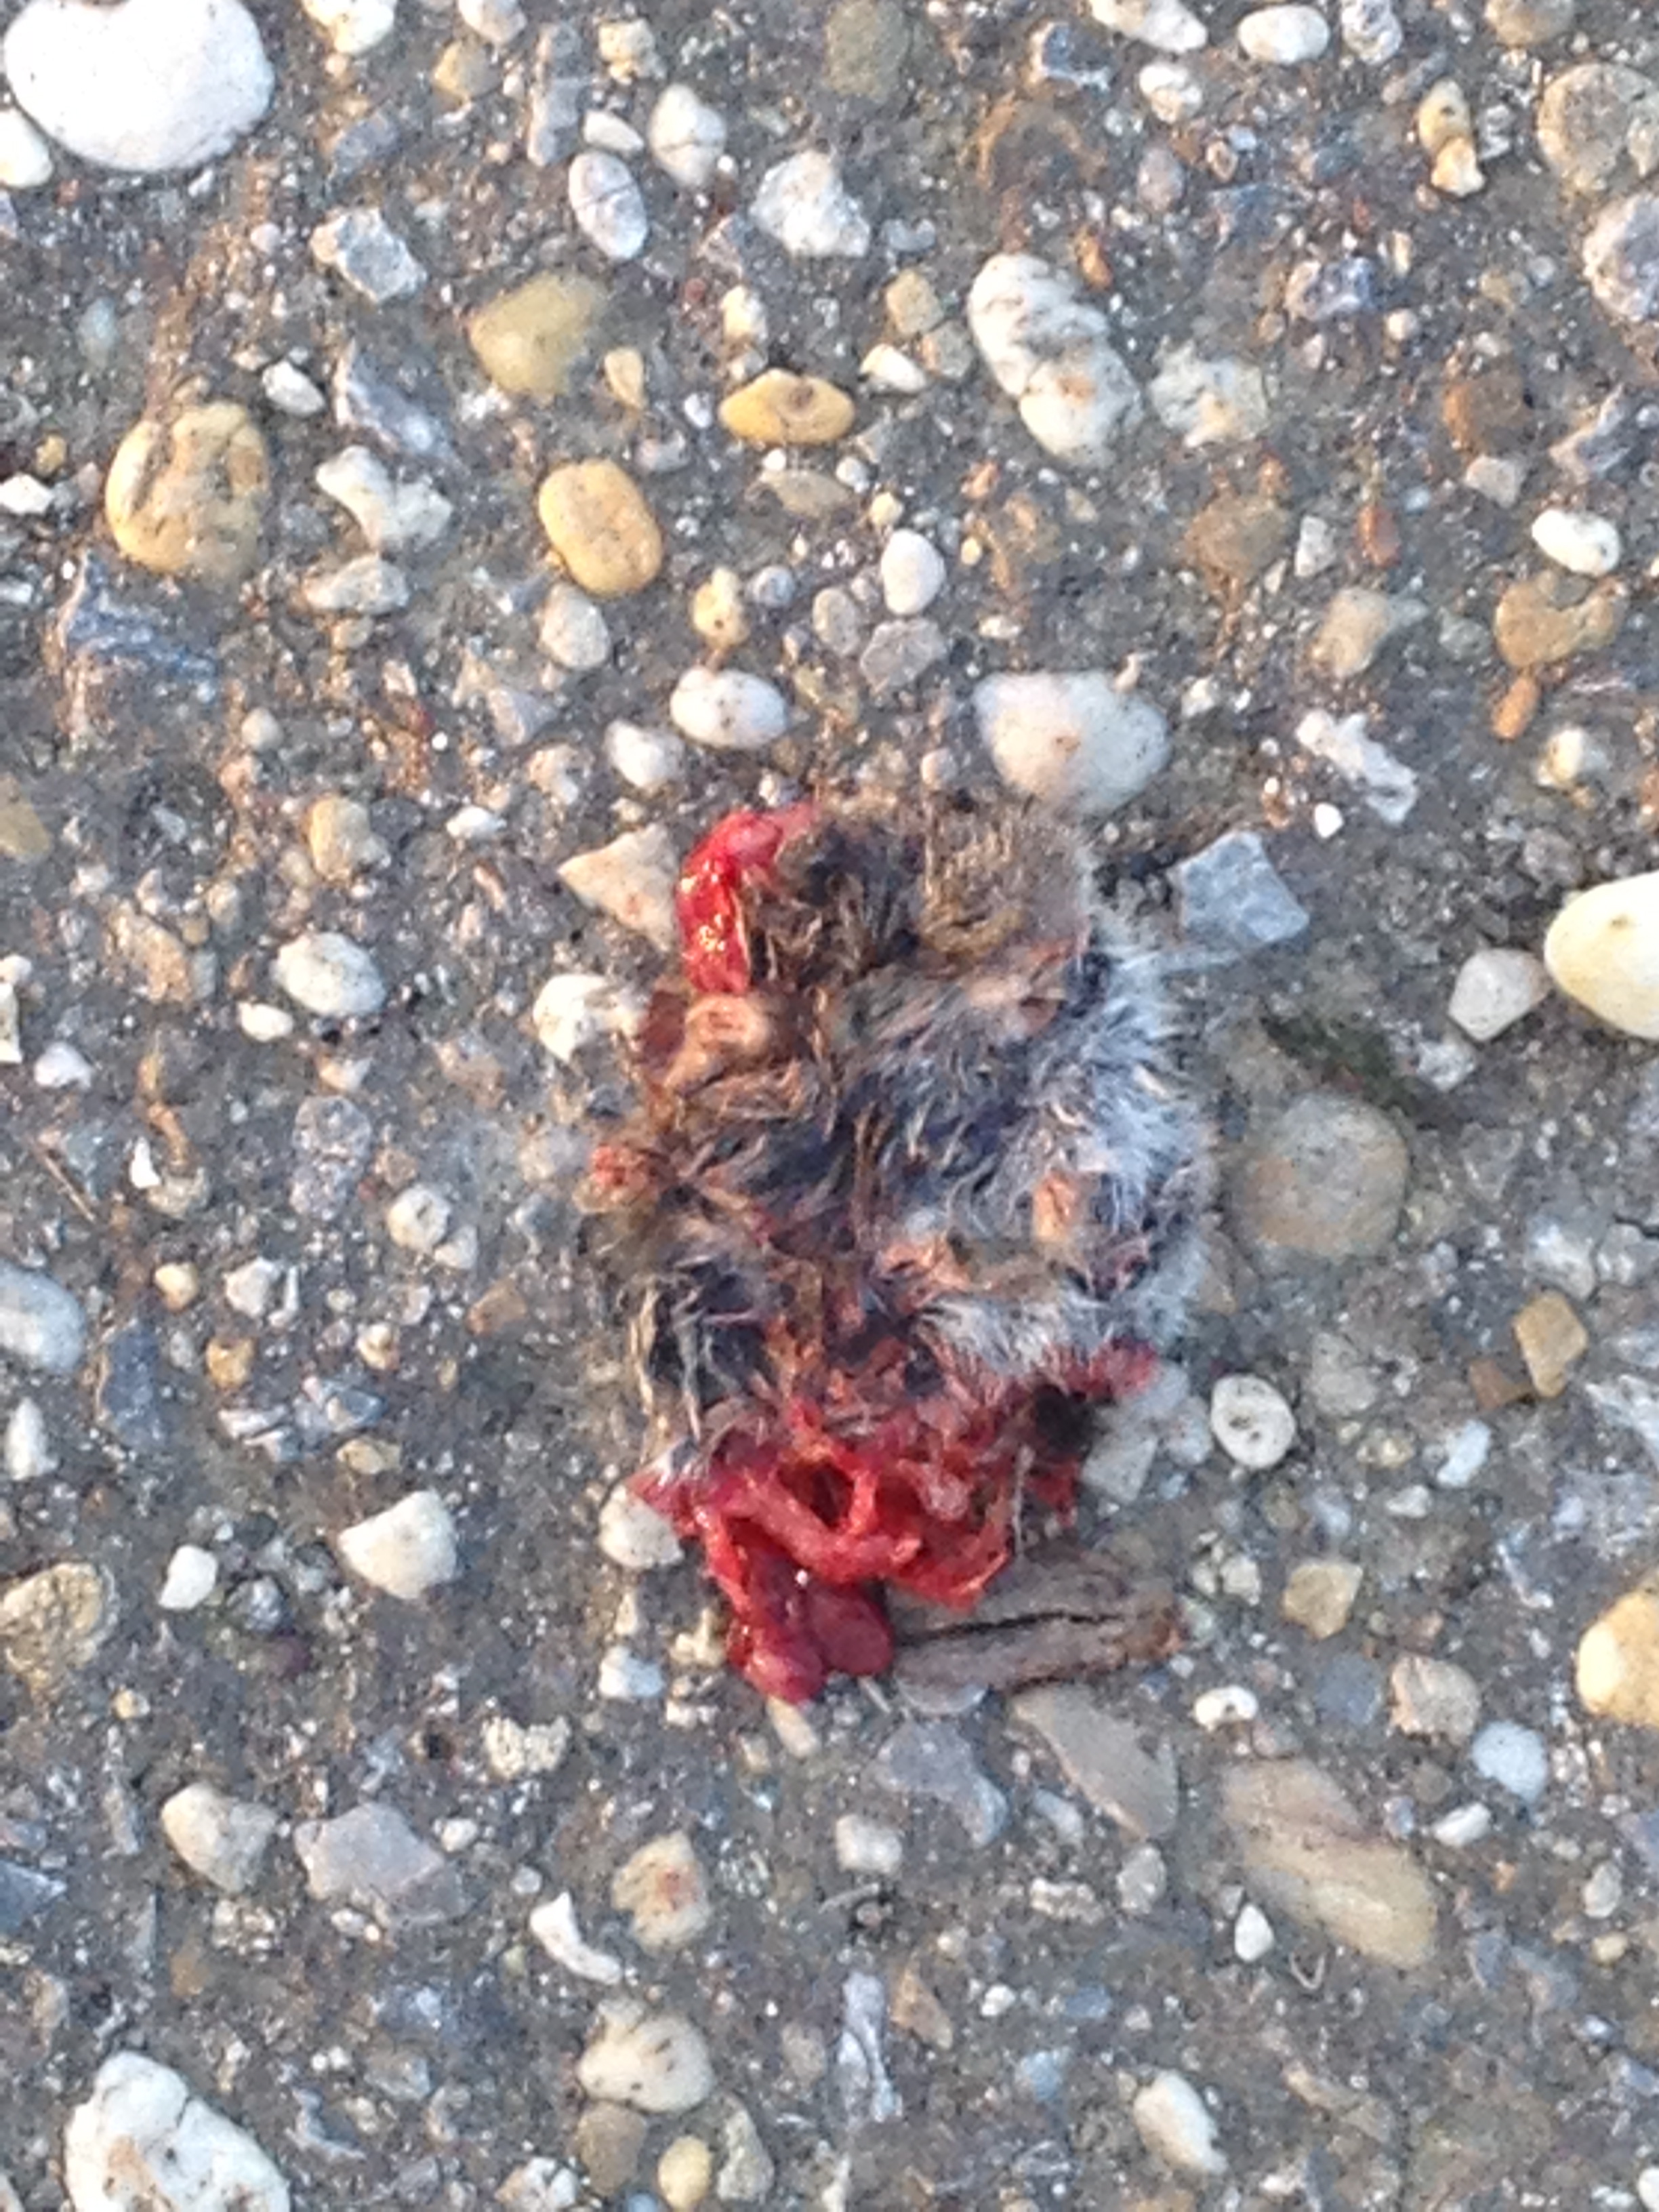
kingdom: Animalia
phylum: Chordata
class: Mammalia
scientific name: Mammalia
